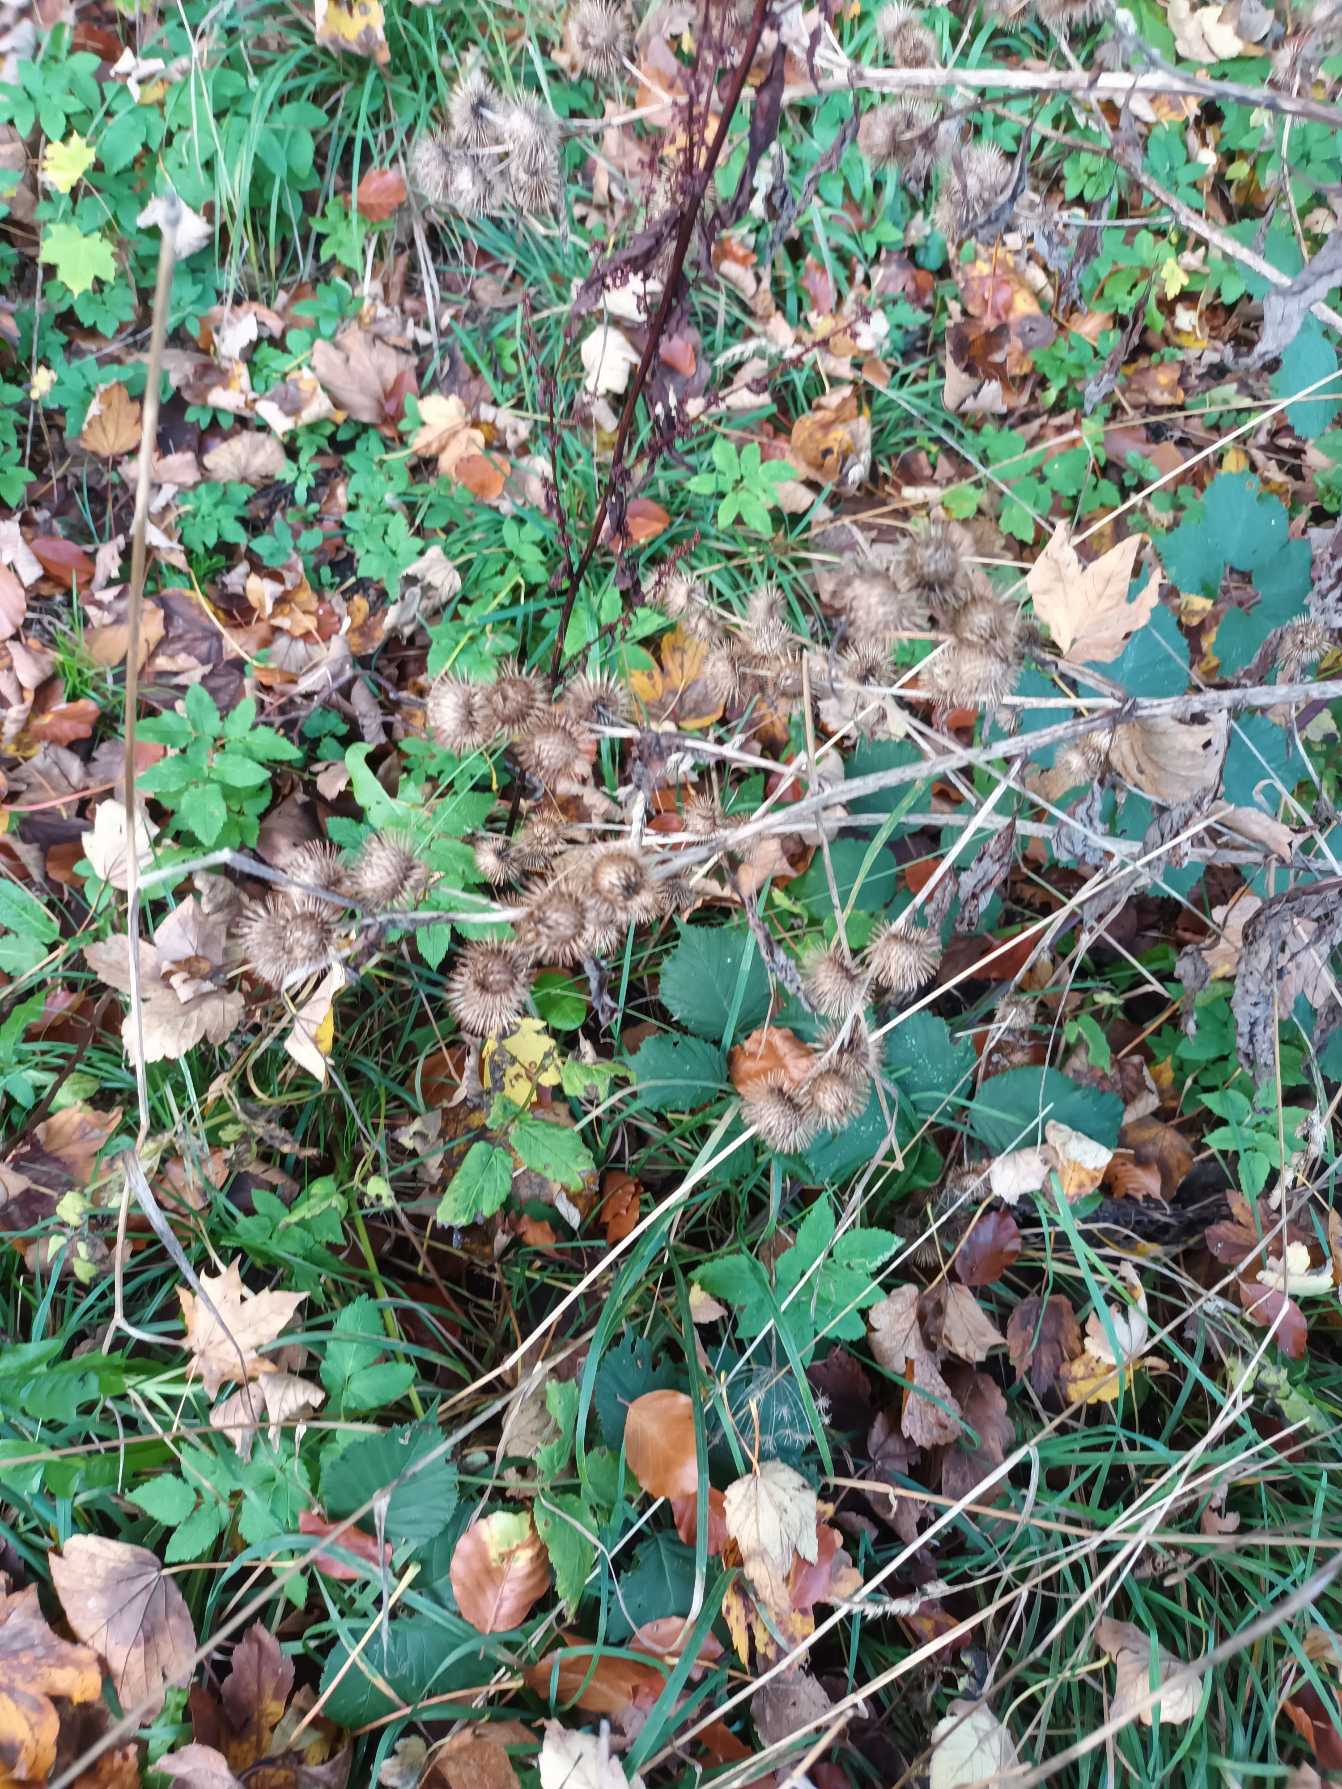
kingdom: Plantae
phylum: Tracheophyta
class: Magnoliopsida
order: Asterales
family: Asteraceae
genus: Arctium
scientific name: Arctium minus
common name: Liden burre
